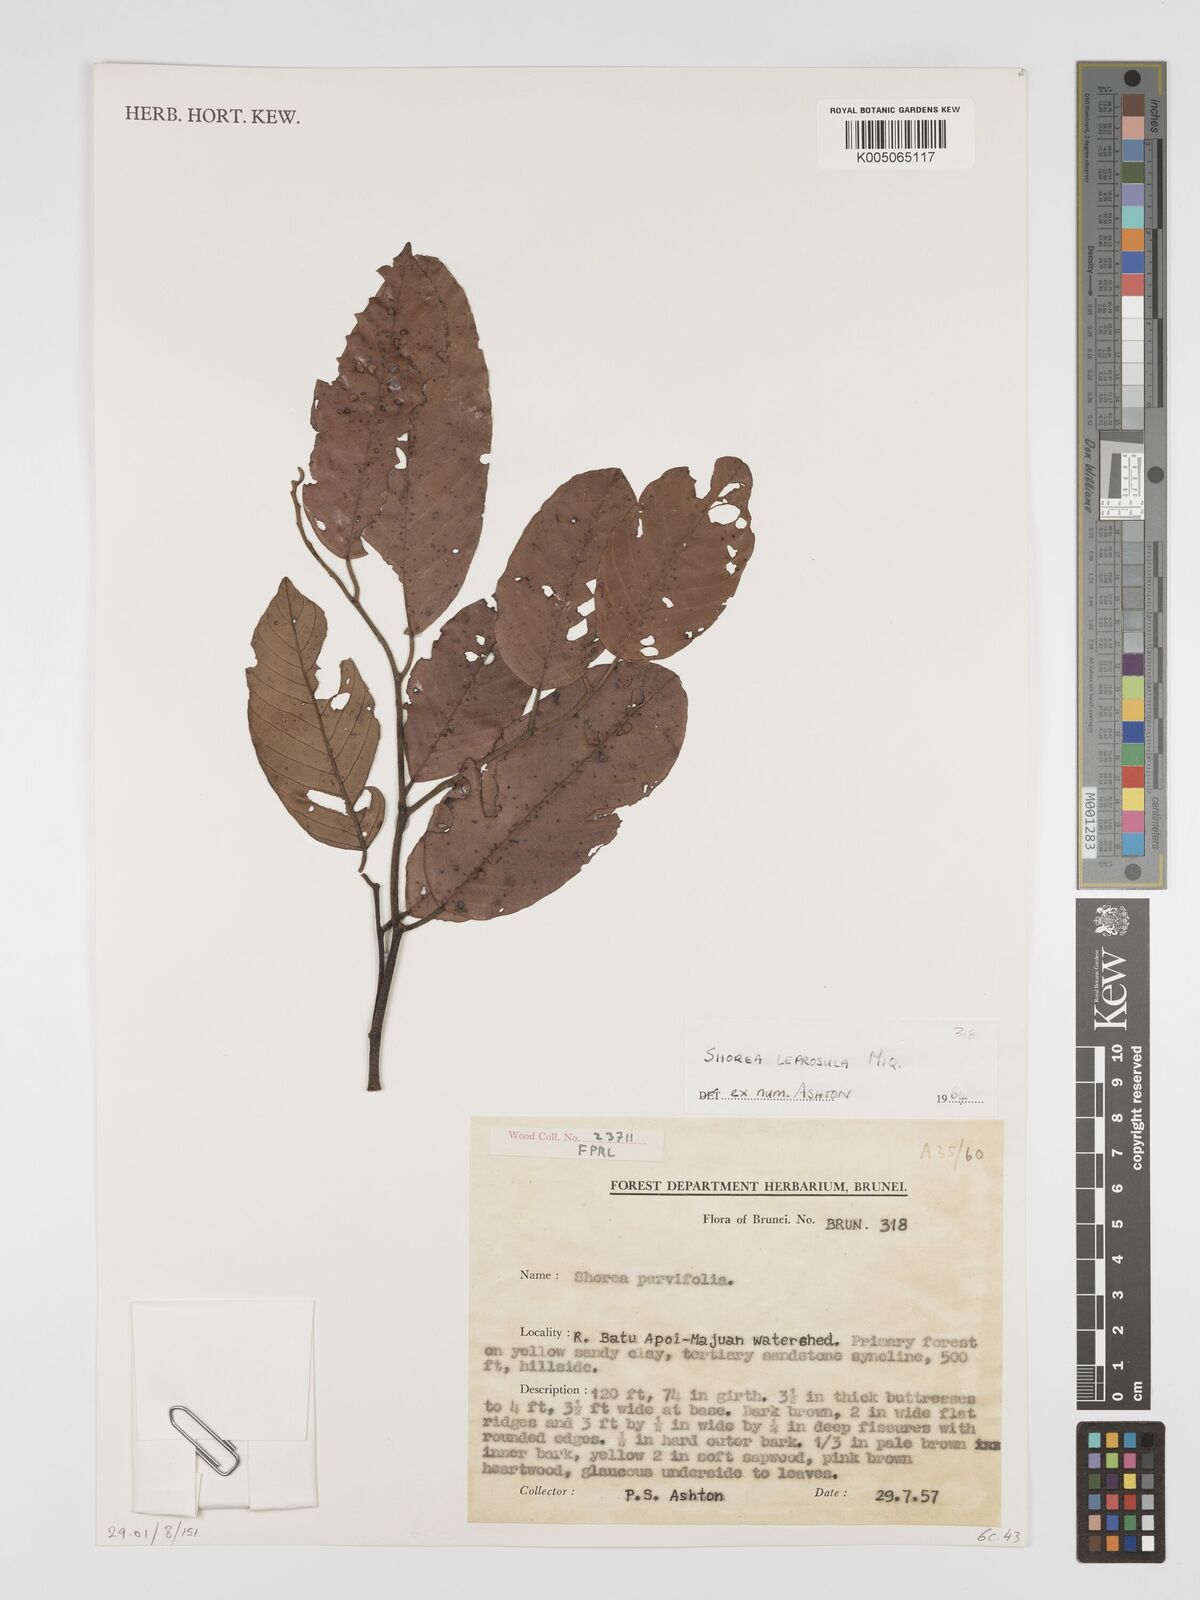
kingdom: Plantae
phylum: Tracheophyta
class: Magnoliopsida
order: Malvales
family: Dipterocarpaceae
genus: Shorea
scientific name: Shorea leprosula
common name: Light red meranti
